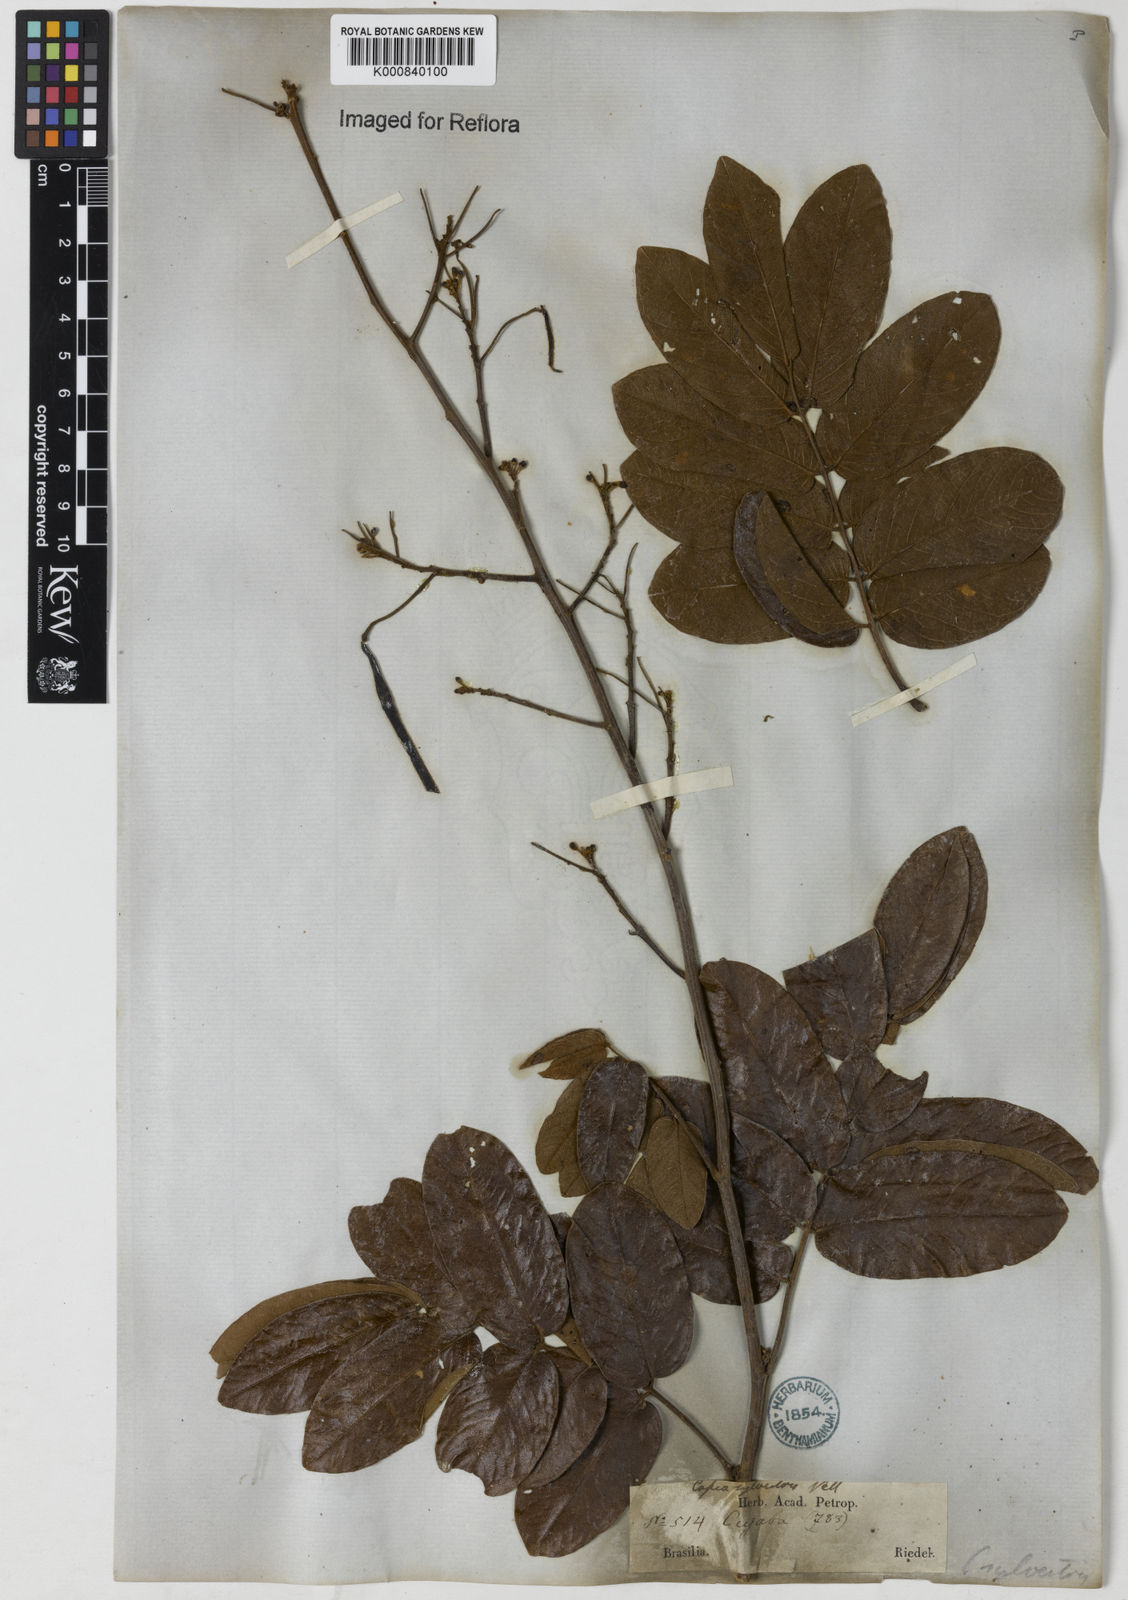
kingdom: Plantae
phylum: Tracheophyta
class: Magnoliopsida
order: Fabales
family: Fabaceae
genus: Senna
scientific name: Senna silvestris
